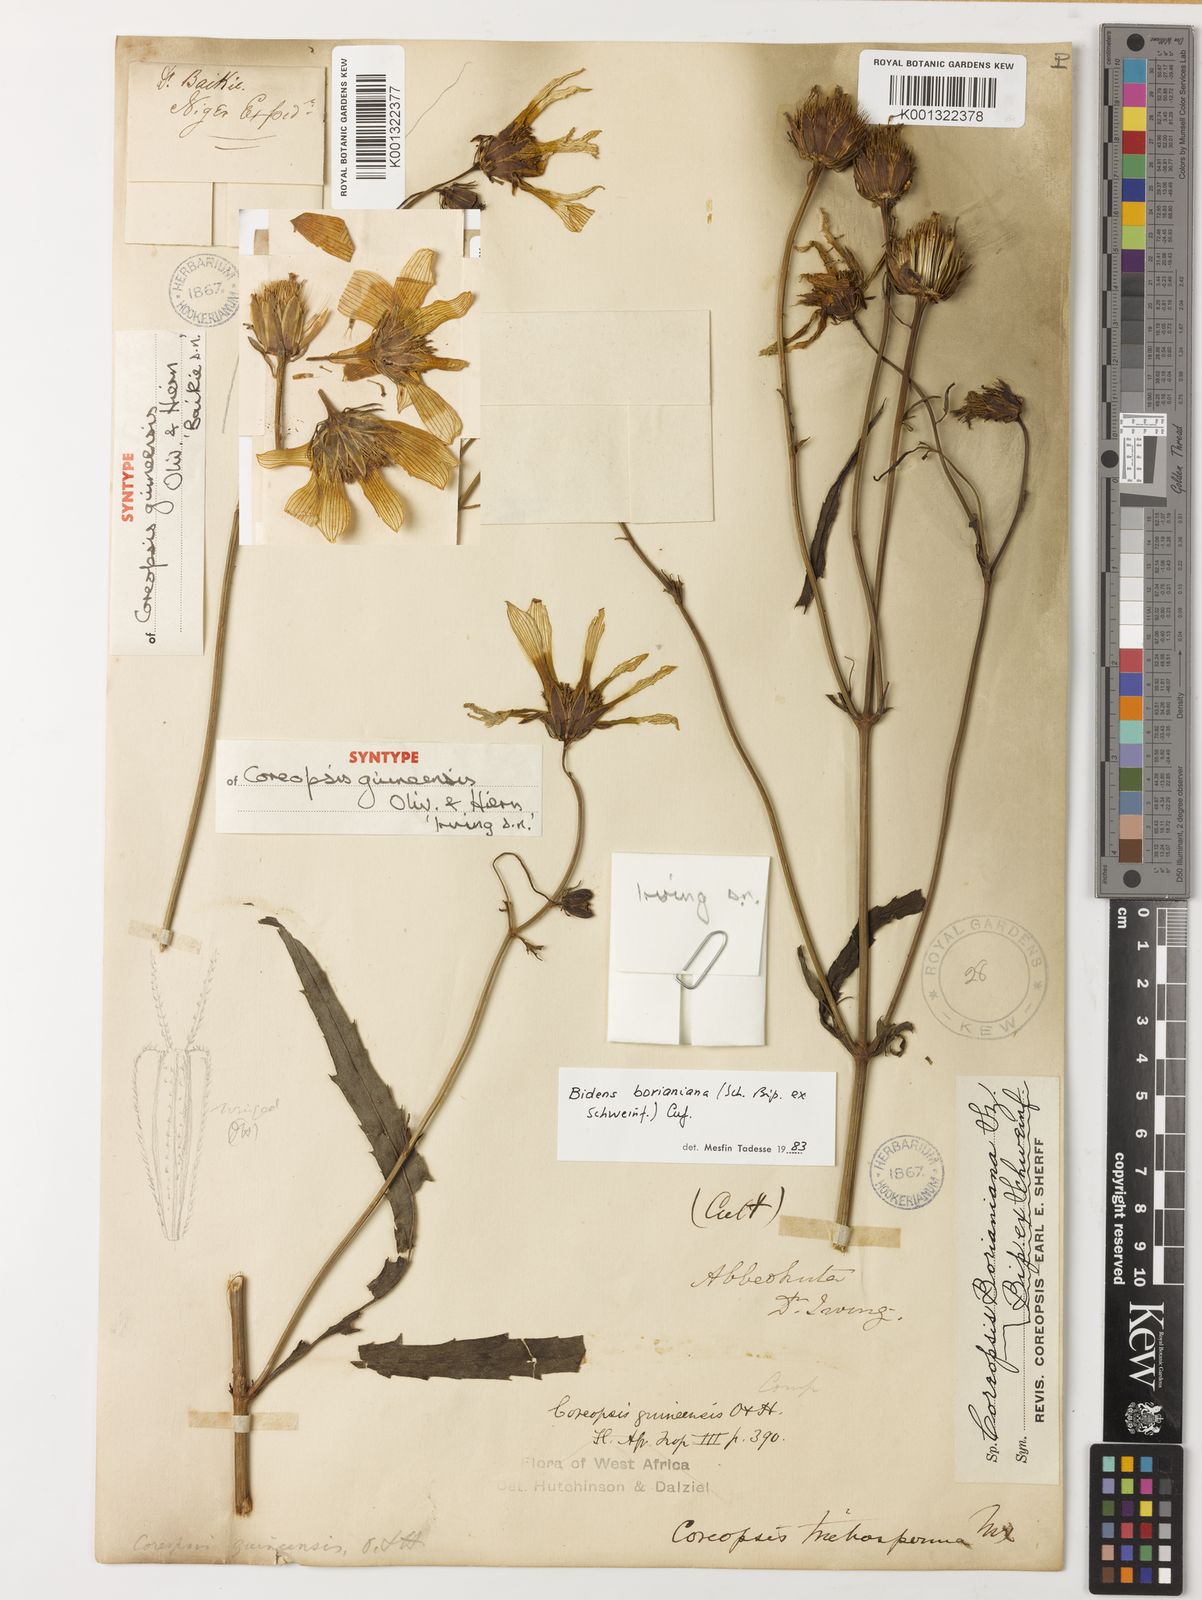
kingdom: Plantae
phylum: Tracheophyta
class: Magnoliopsida
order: Asterales
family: Asteraceae
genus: Bidens
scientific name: Bidens borianiana
